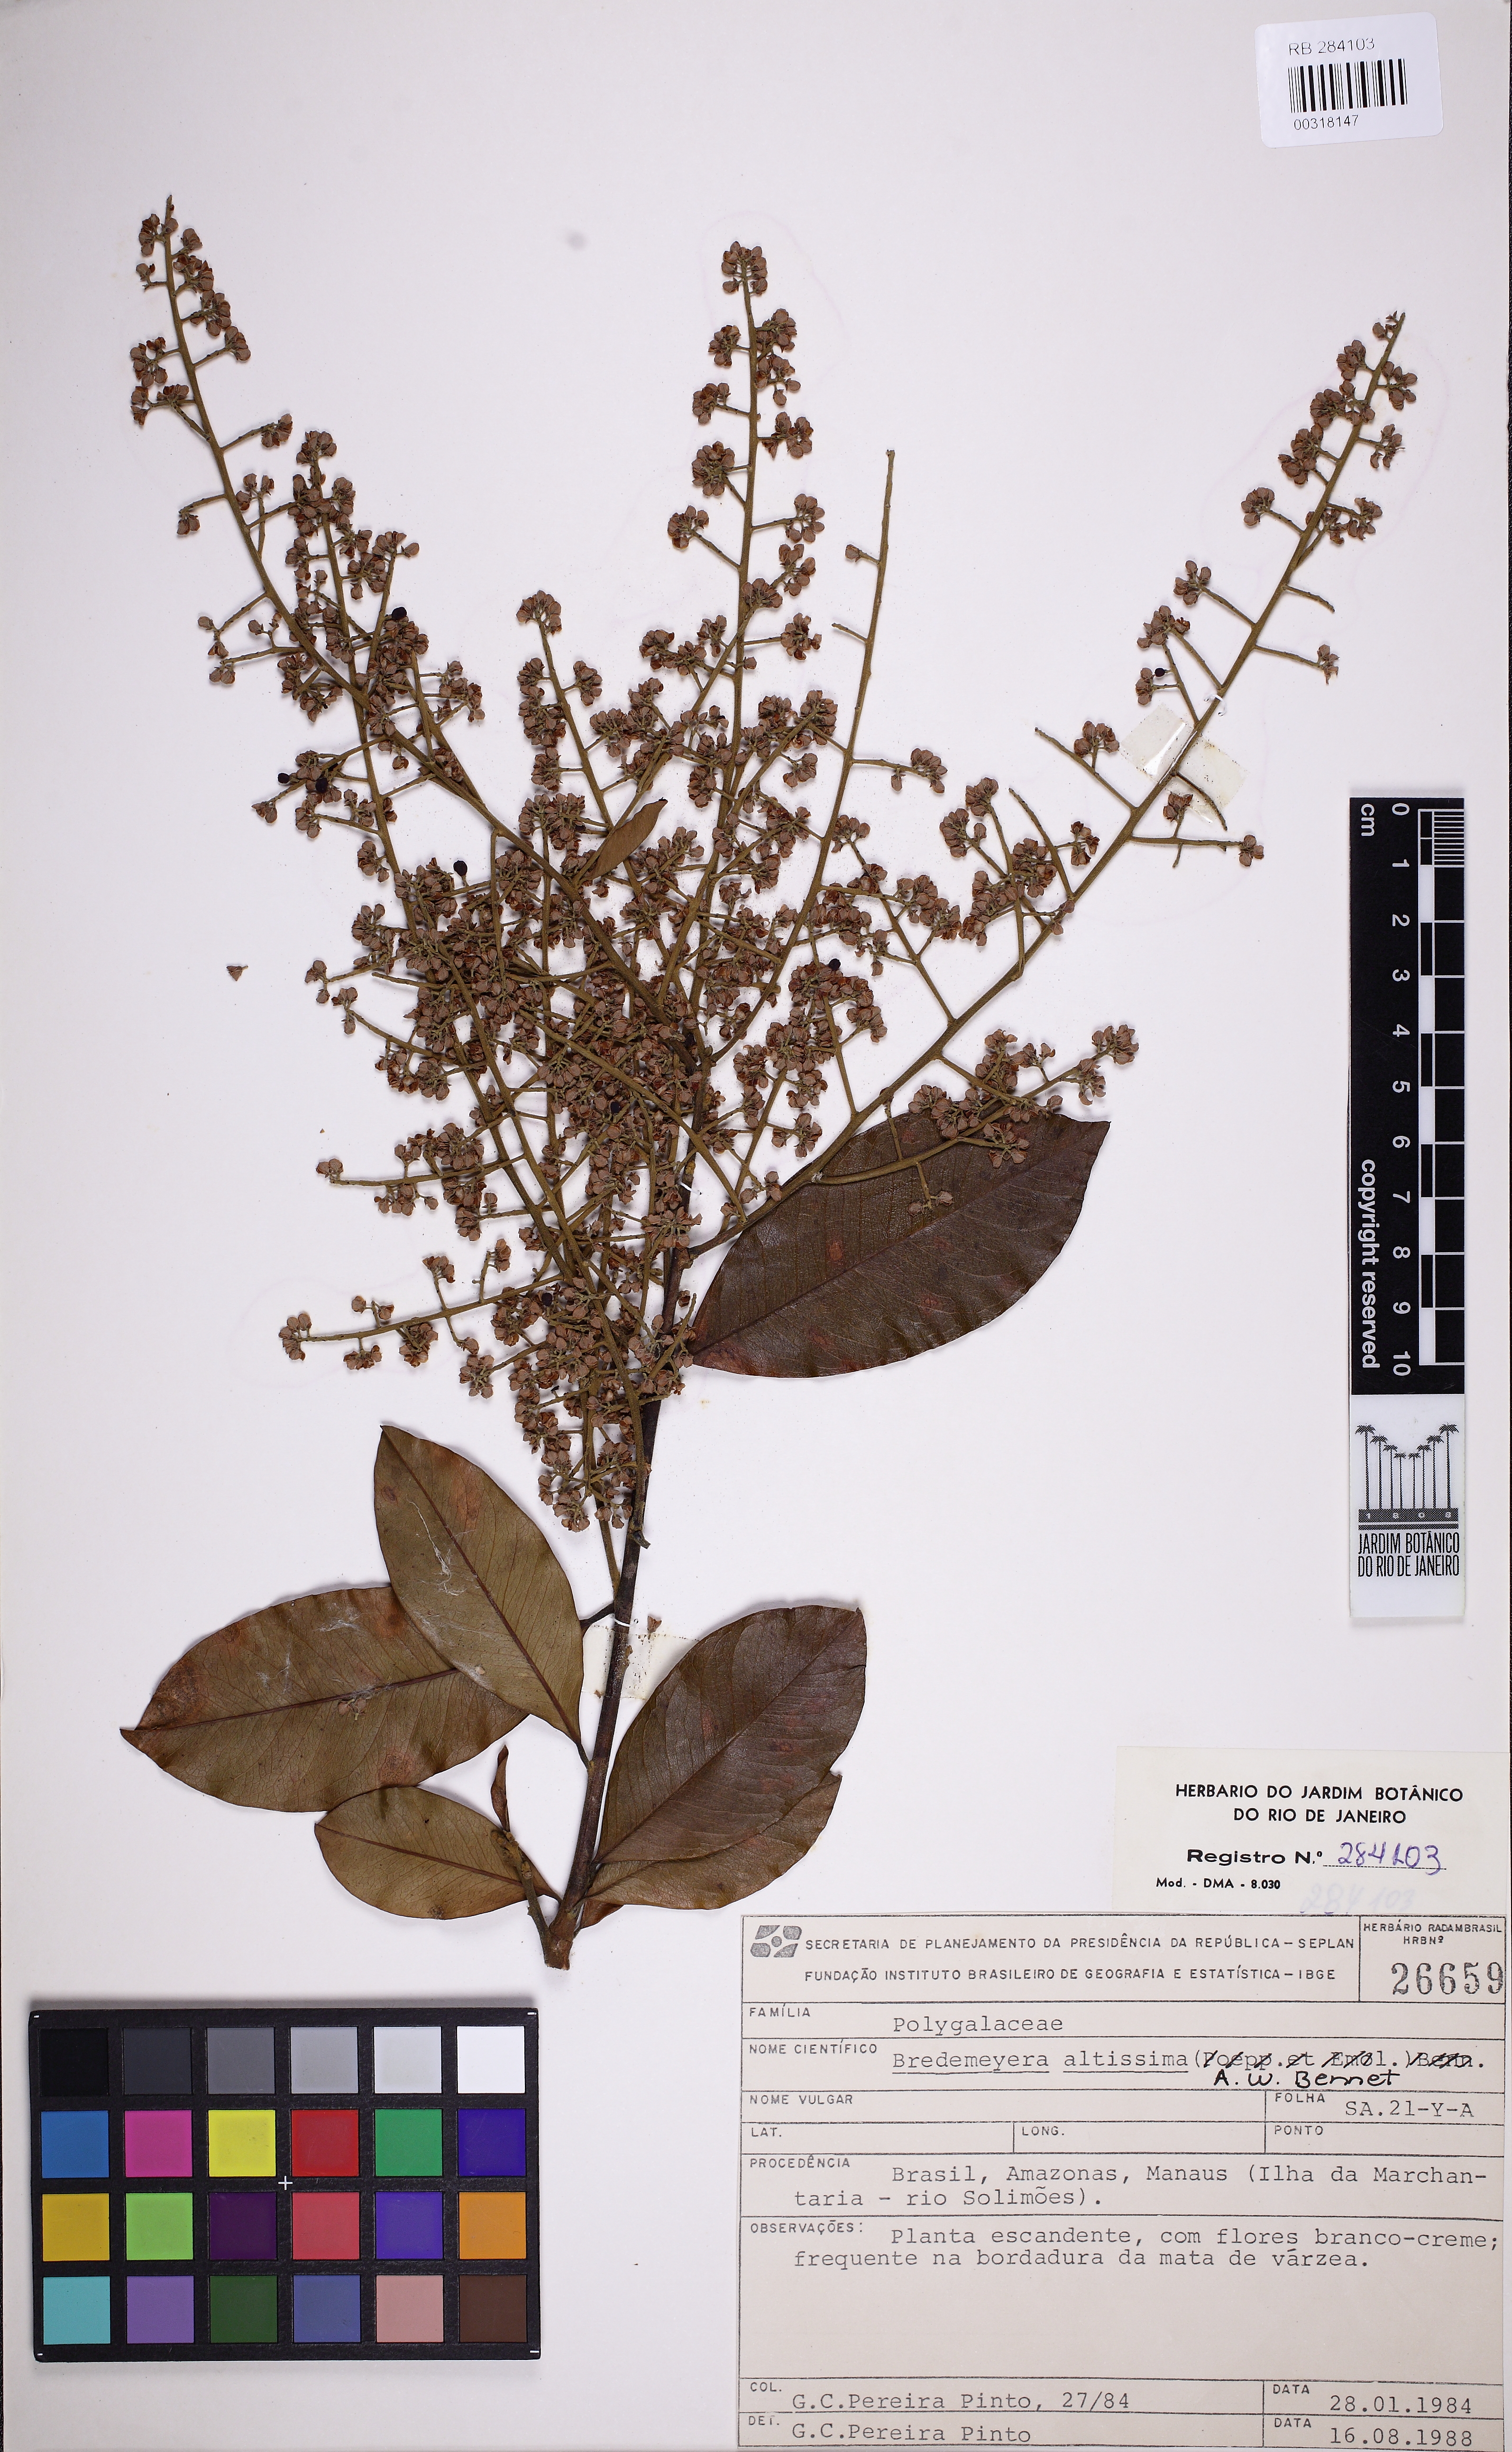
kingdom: Plantae
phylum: Tracheophyta
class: Magnoliopsida
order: Fabales
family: Polygalaceae
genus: Bredemeyera
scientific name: Bredemeyera divaricata
